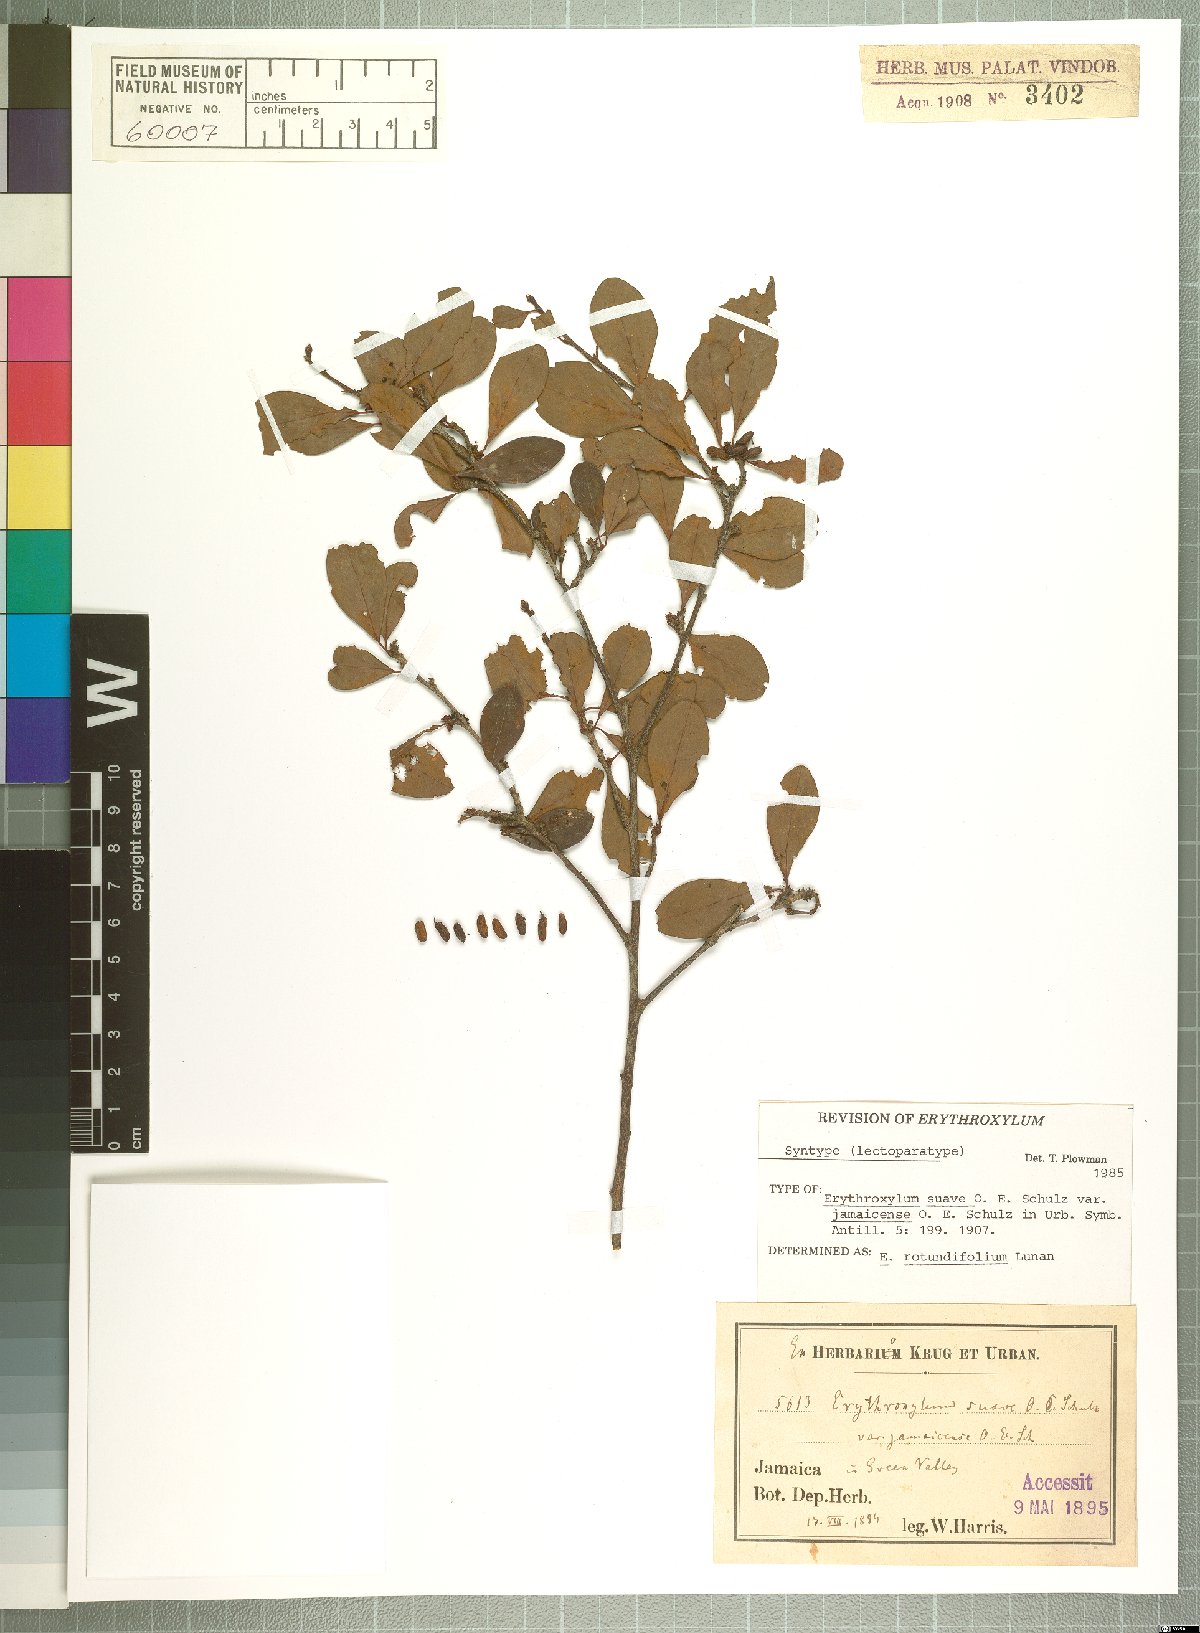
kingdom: Plantae
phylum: Tracheophyta
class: Magnoliopsida
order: Malpighiales
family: Erythroxylaceae
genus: Erythroxylum
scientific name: Erythroxylum rotundifolium
